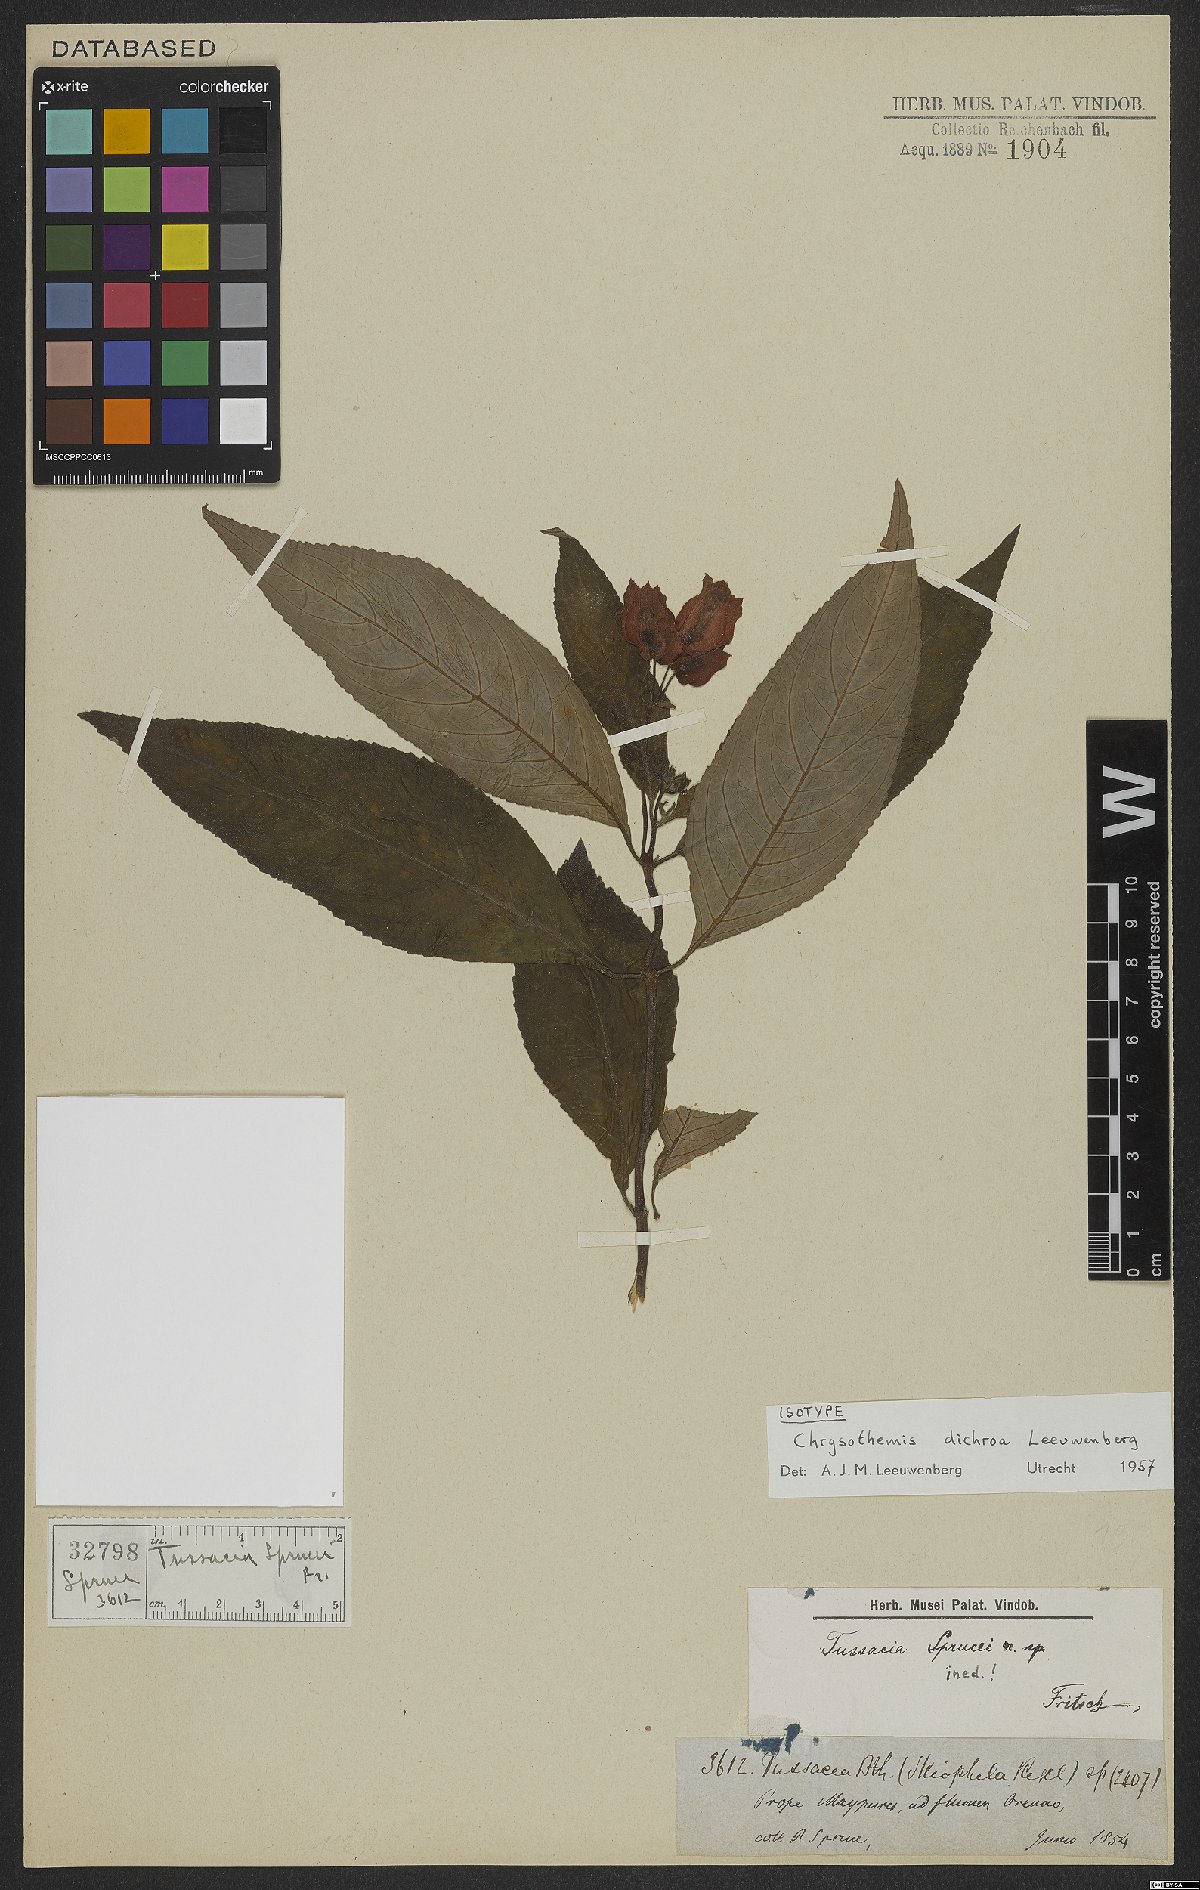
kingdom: Plantae
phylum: Tracheophyta
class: Magnoliopsida
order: Lamiales
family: Gesneriaceae
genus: Chrysothemis
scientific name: Chrysothemis dichroa
